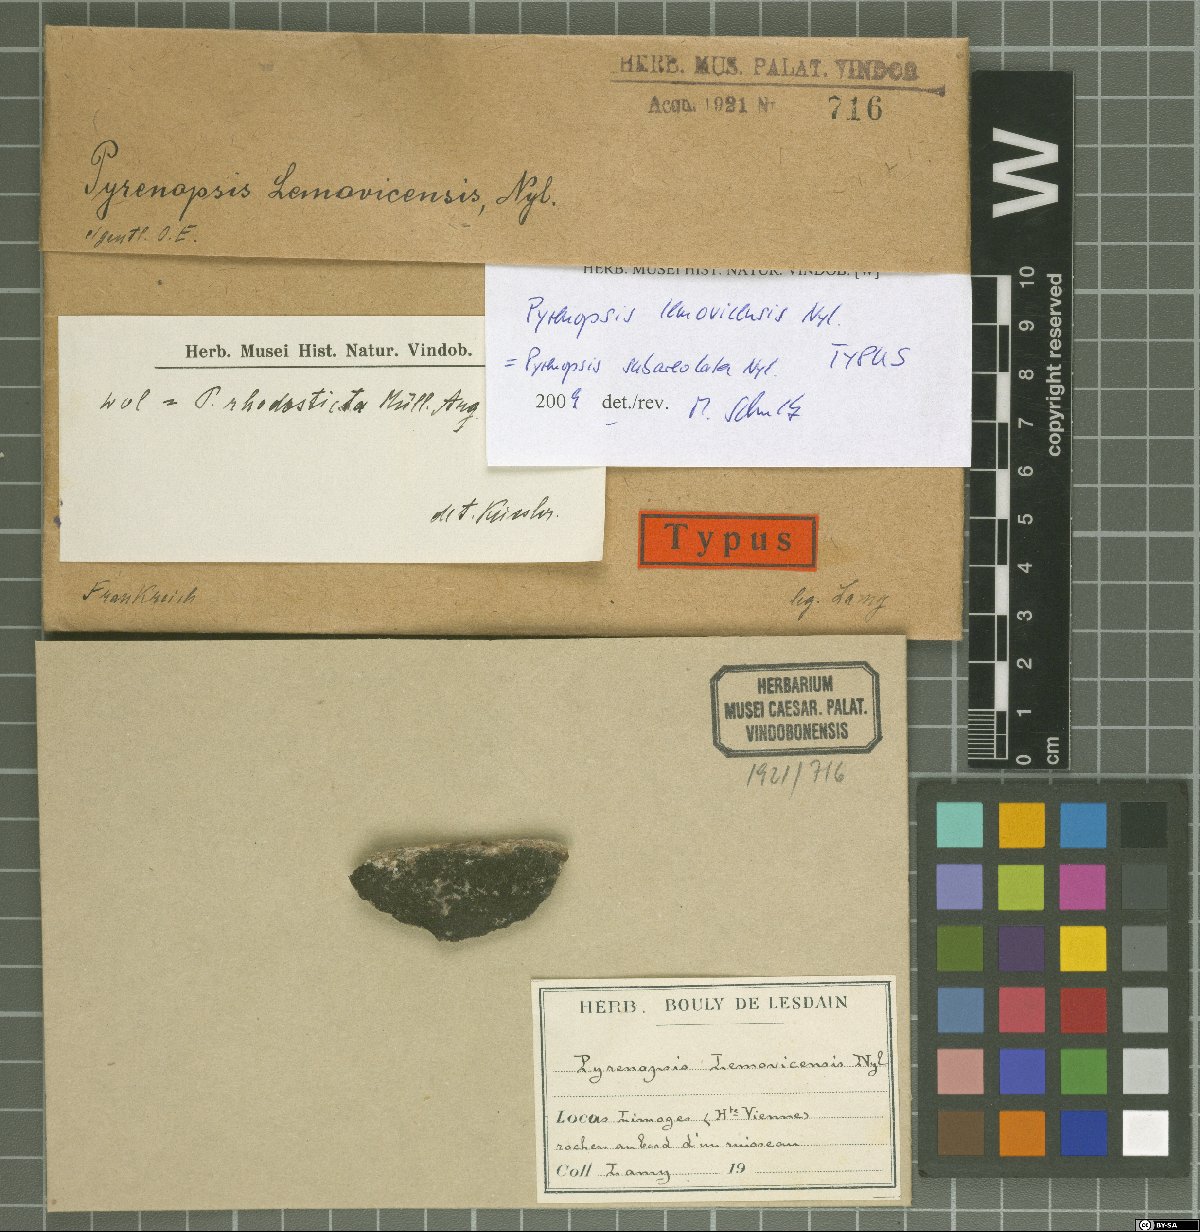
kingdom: Fungi
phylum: Ascomycota
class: Lichinomycetes
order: Lichinales
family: Lichinaceae
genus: Pyrenopsis
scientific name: Pyrenopsis lemovicensis
